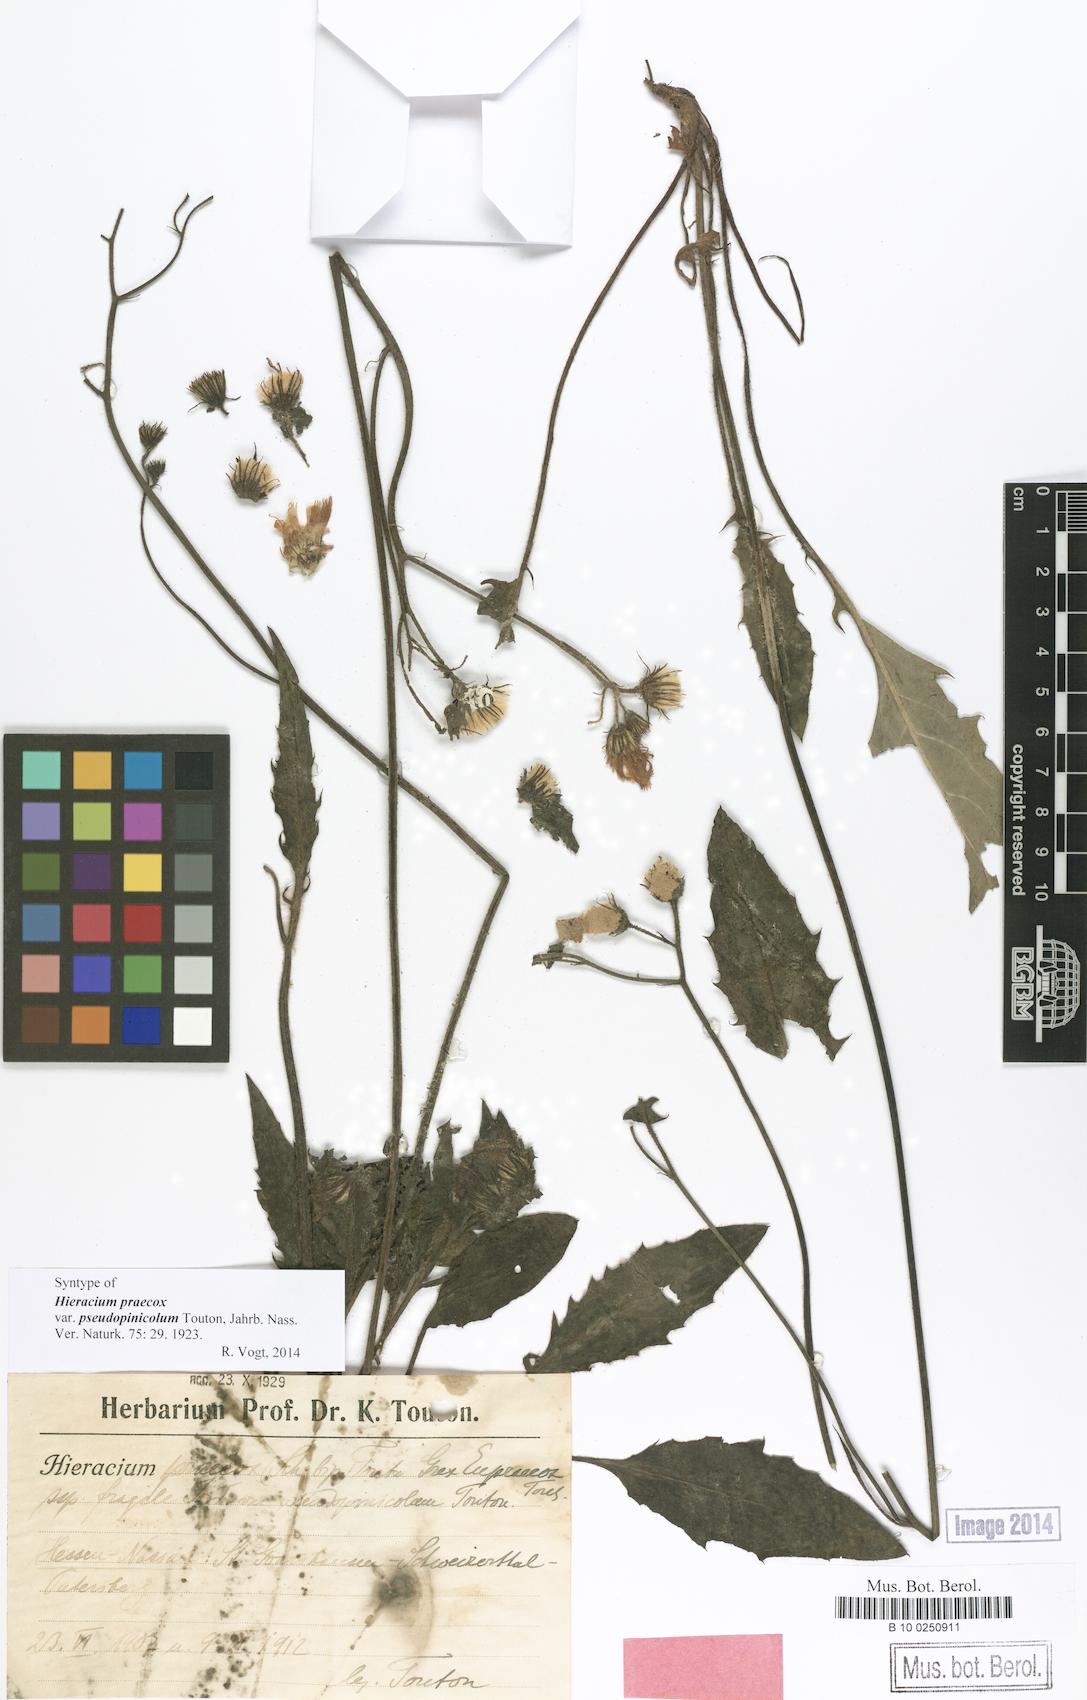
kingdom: Plantae
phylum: Tracheophyta
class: Magnoliopsida
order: Asterales
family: Asteraceae
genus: Hieracium
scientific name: Hieracium praecox
